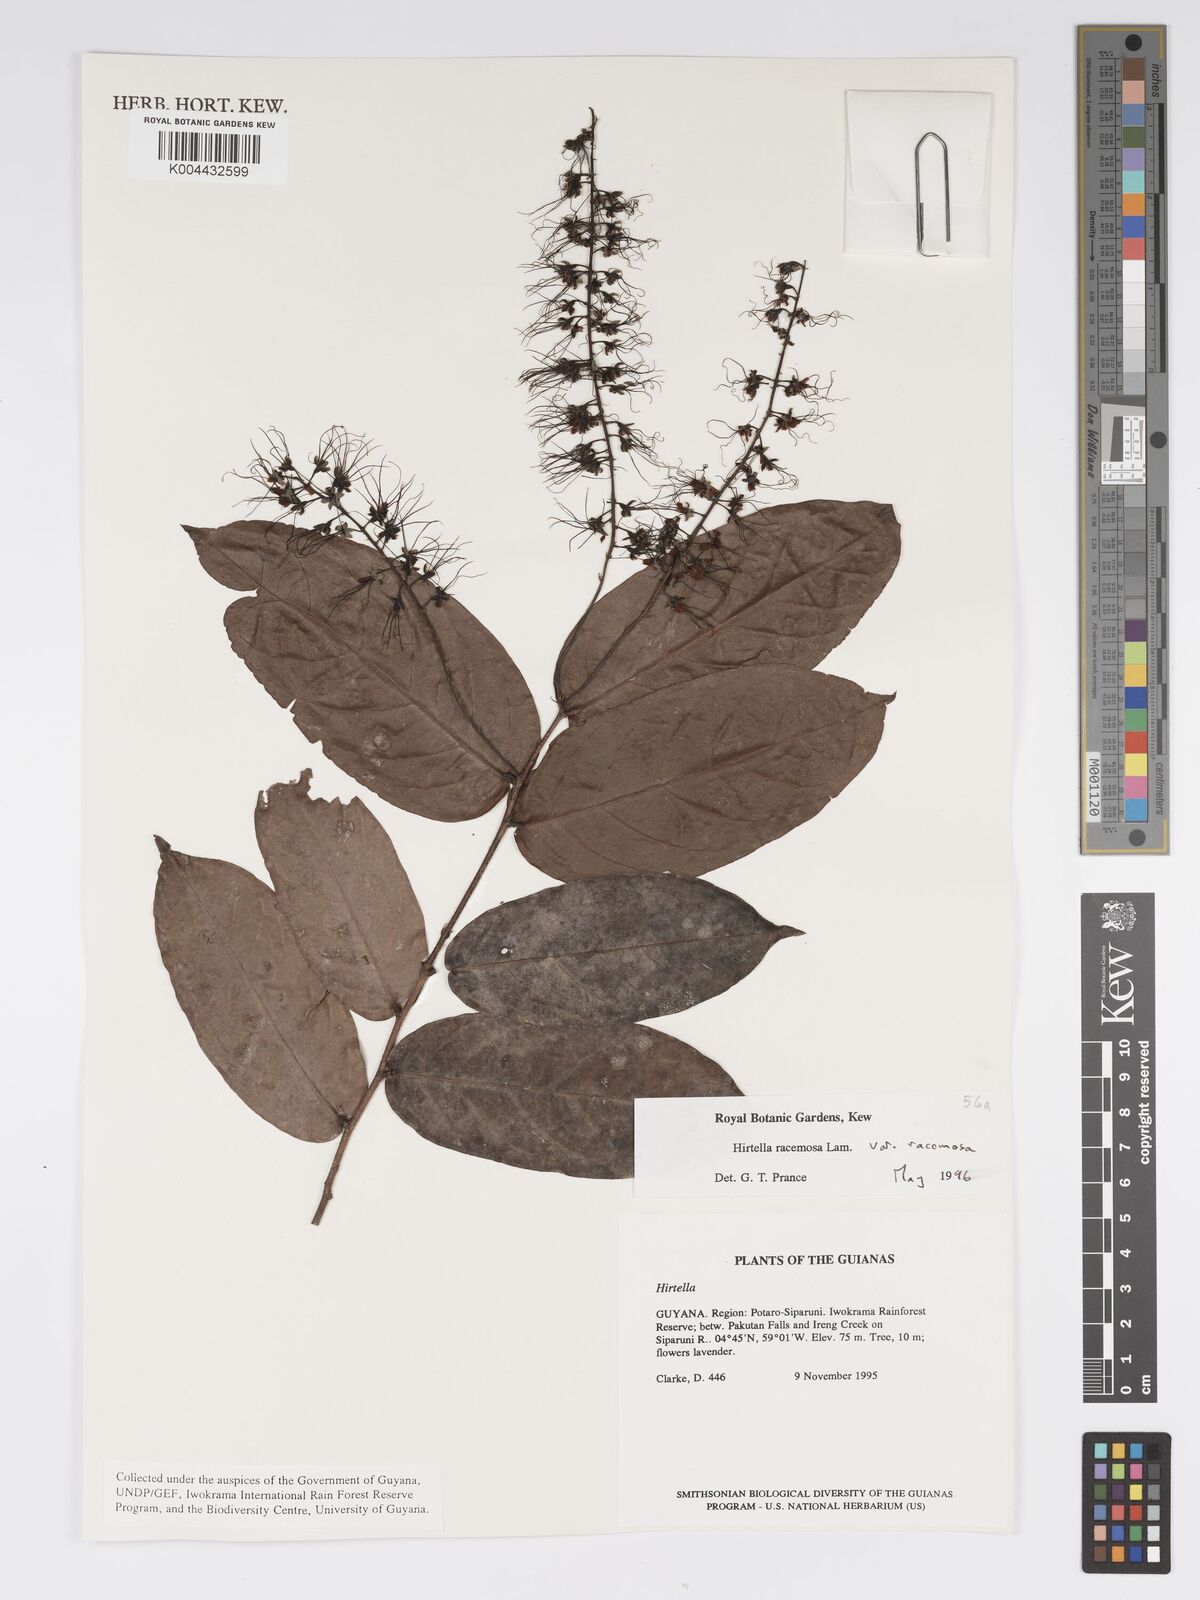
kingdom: Plantae
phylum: Tracheophyta
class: Magnoliopsida
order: Malpighiales
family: Chrysobalanaceae
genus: Hirtella
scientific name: Hirtella racemosa
